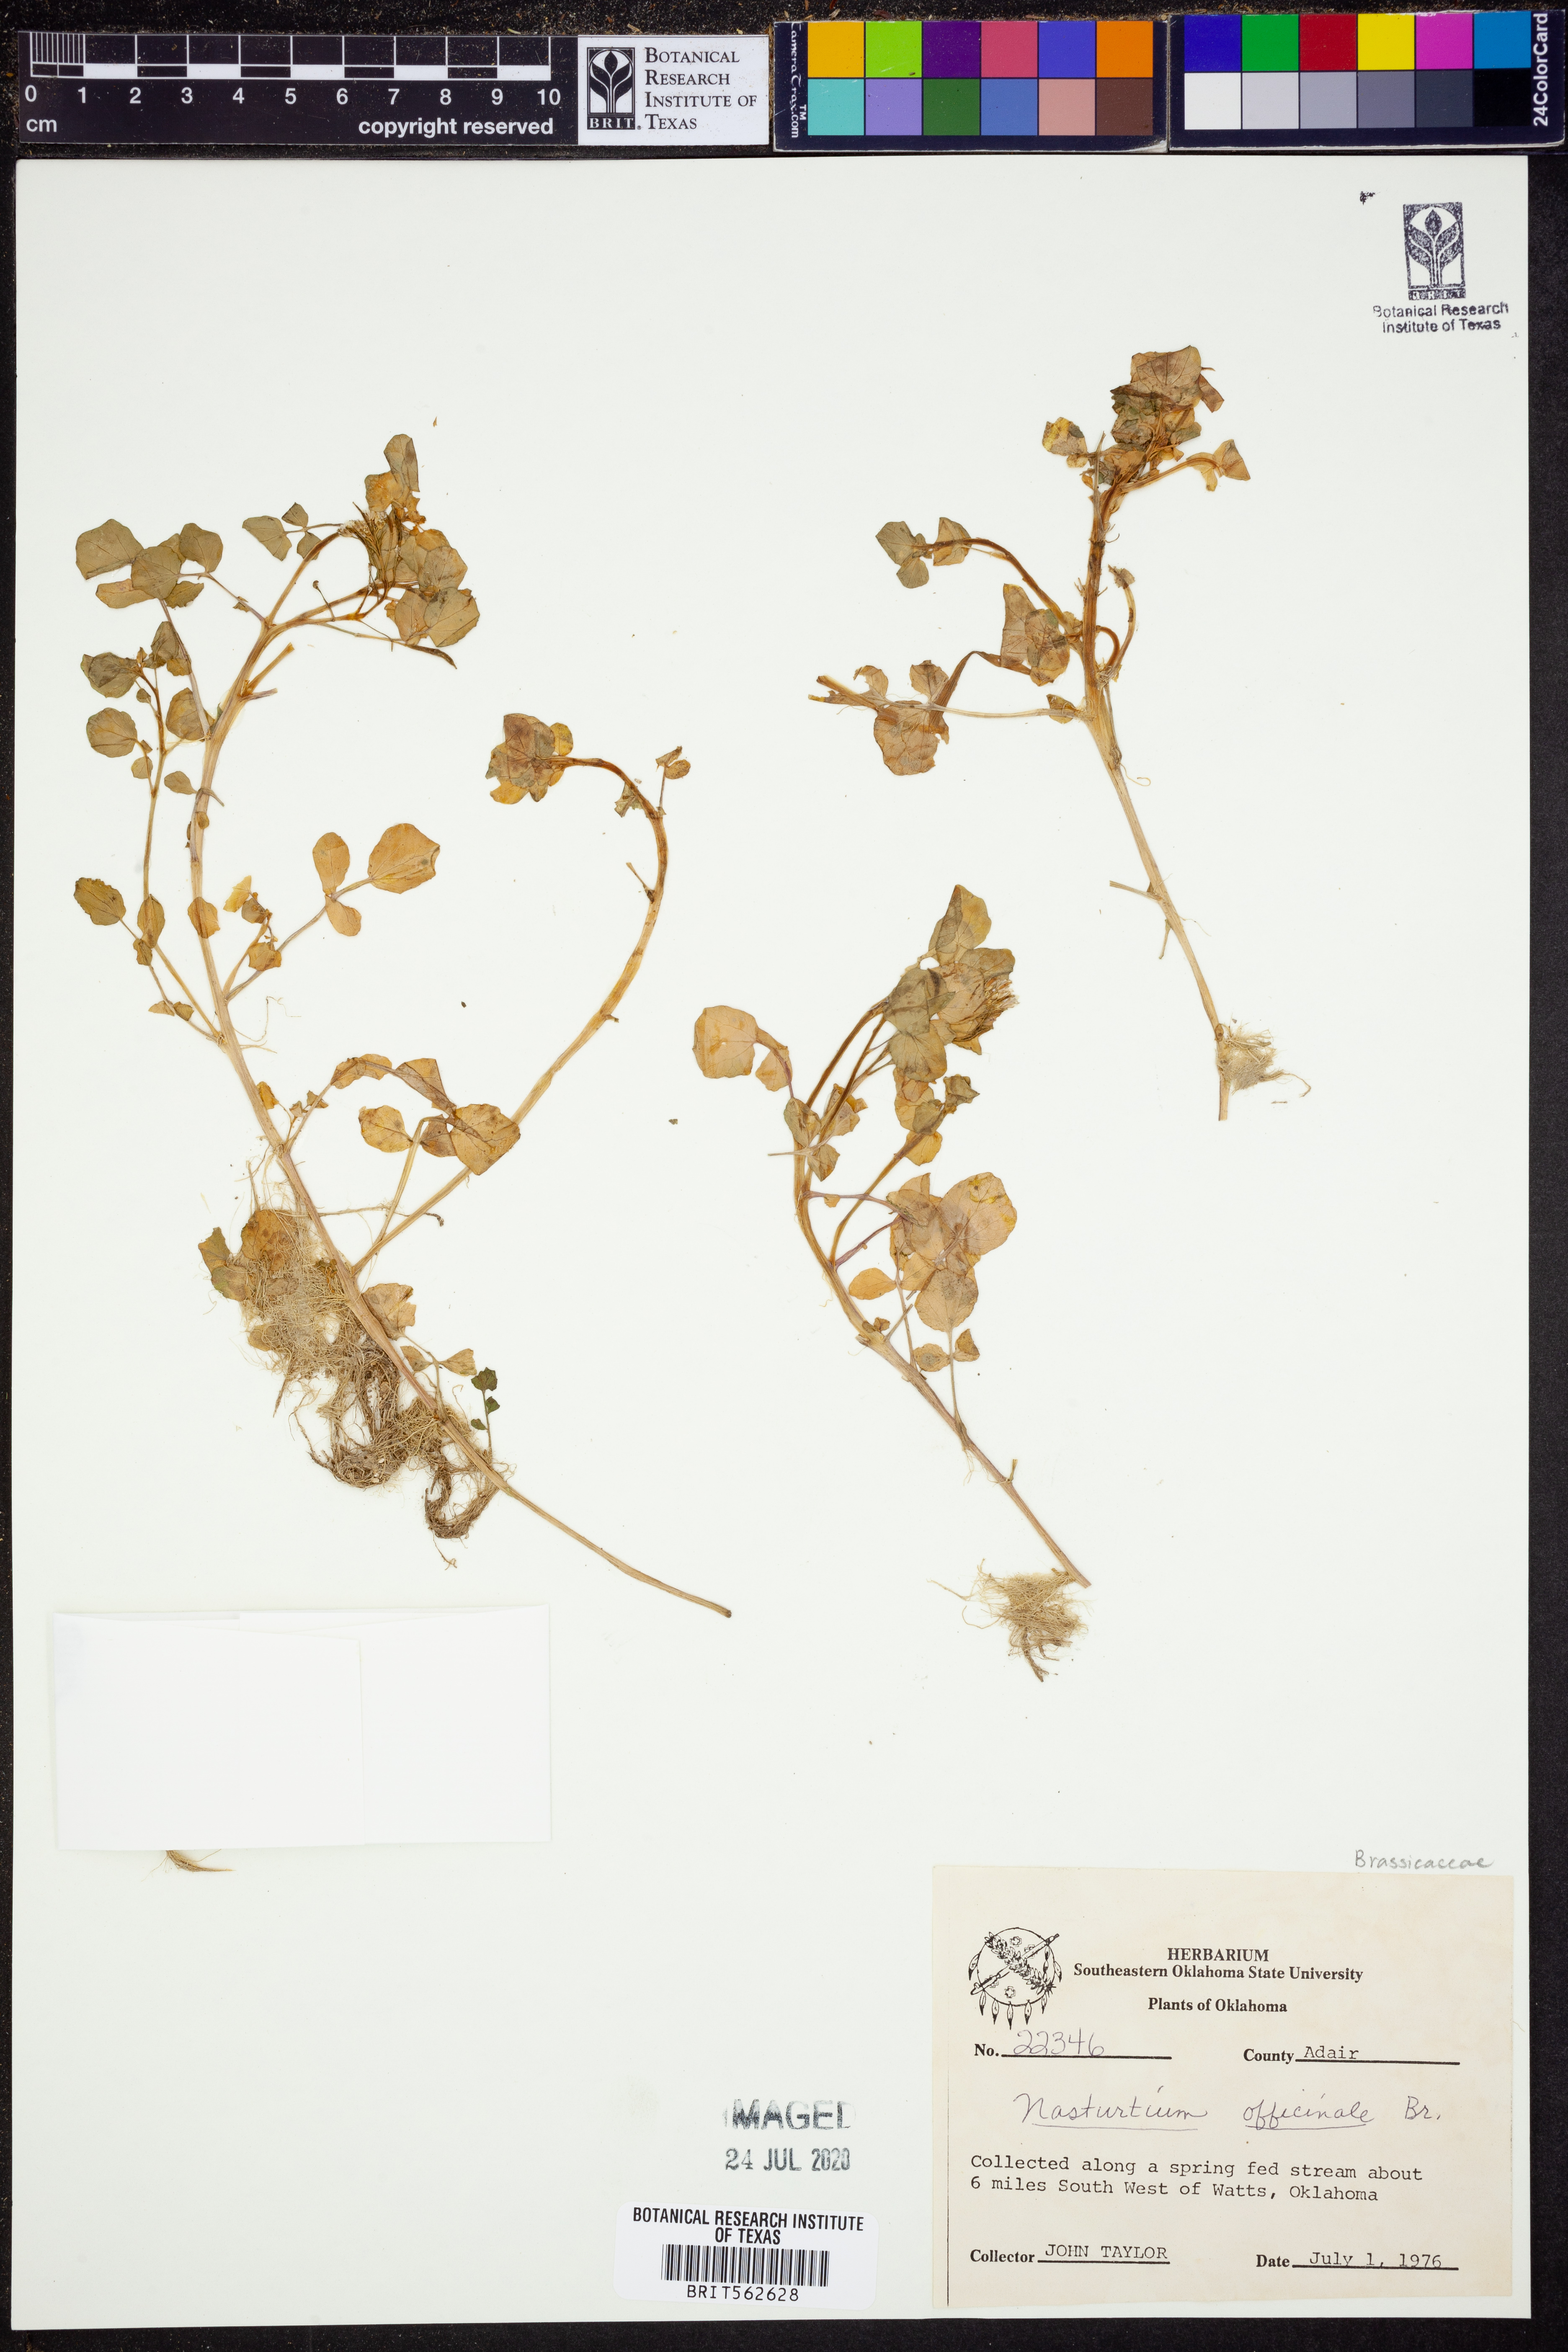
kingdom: Plantae
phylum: Tracheophyta
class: Magnoliopsida
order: Brassicales
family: Brassicaceae
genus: Nasturtium
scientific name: Nasturtium officinale
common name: Watercress
